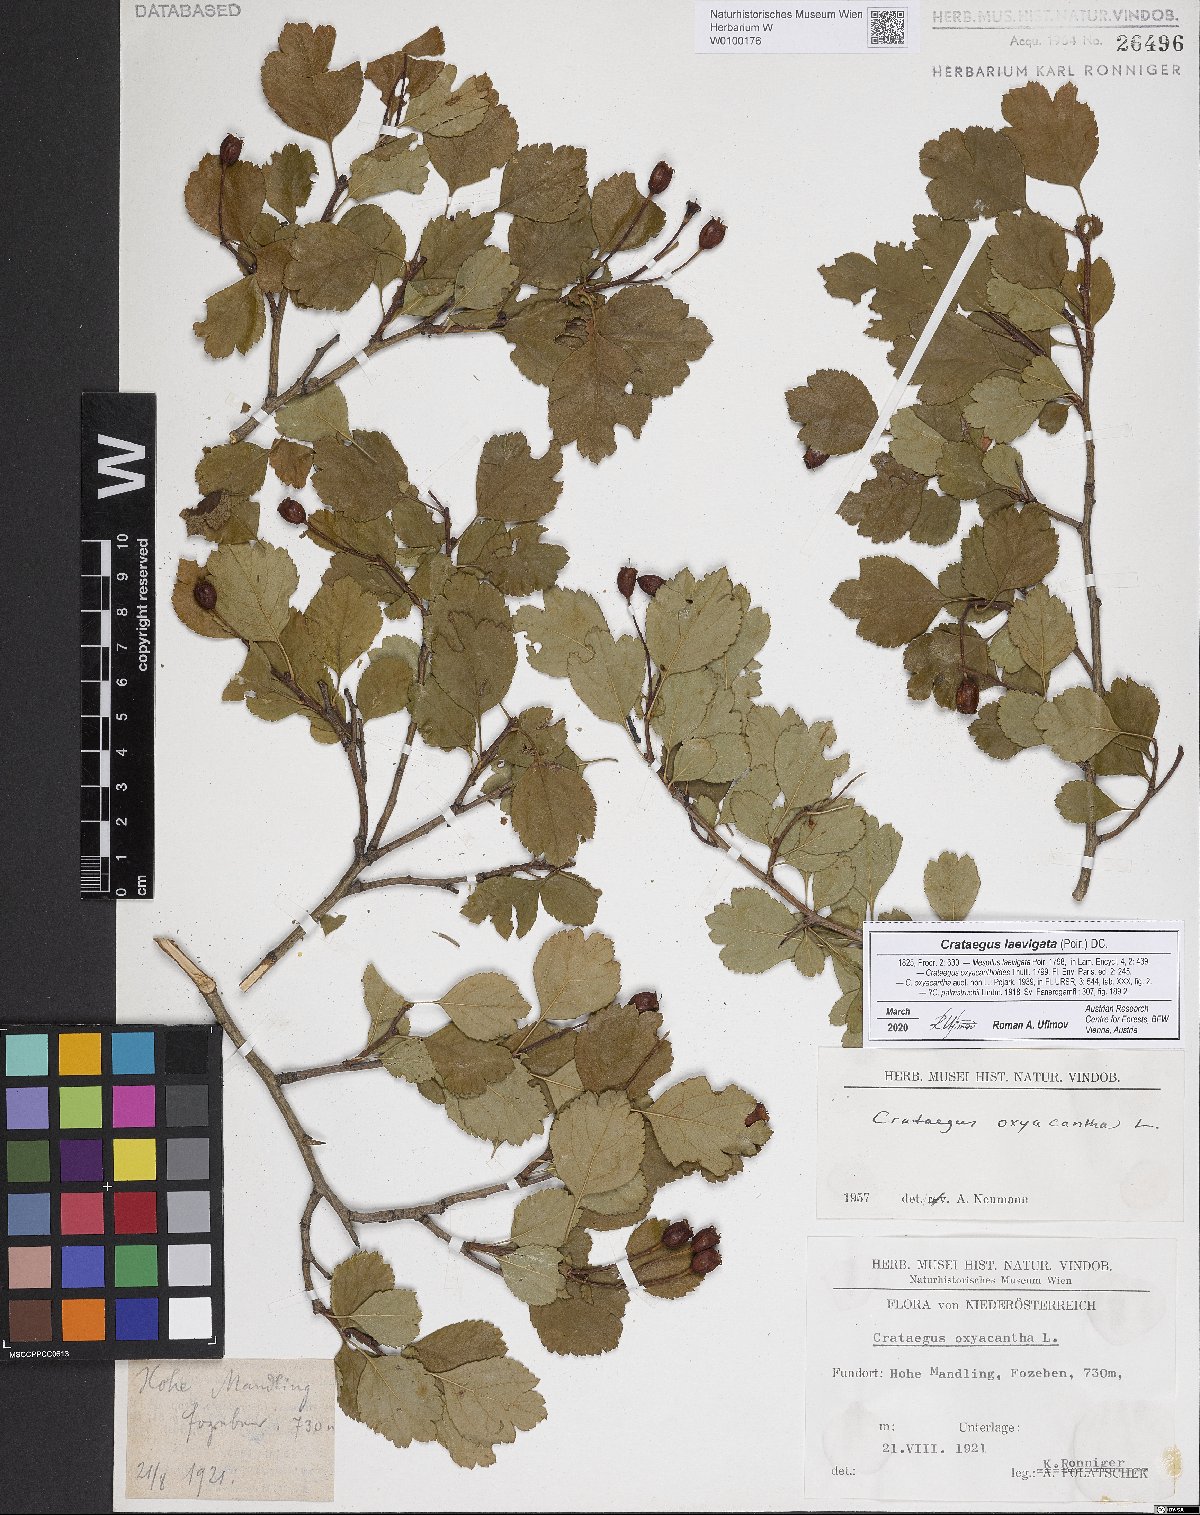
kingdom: Plantae
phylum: Tracheophyta
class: Magnoliopsida
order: Rosales
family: Rosaceae
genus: Crataegus
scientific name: Crataegus laevigata
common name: Midland hawthorn
